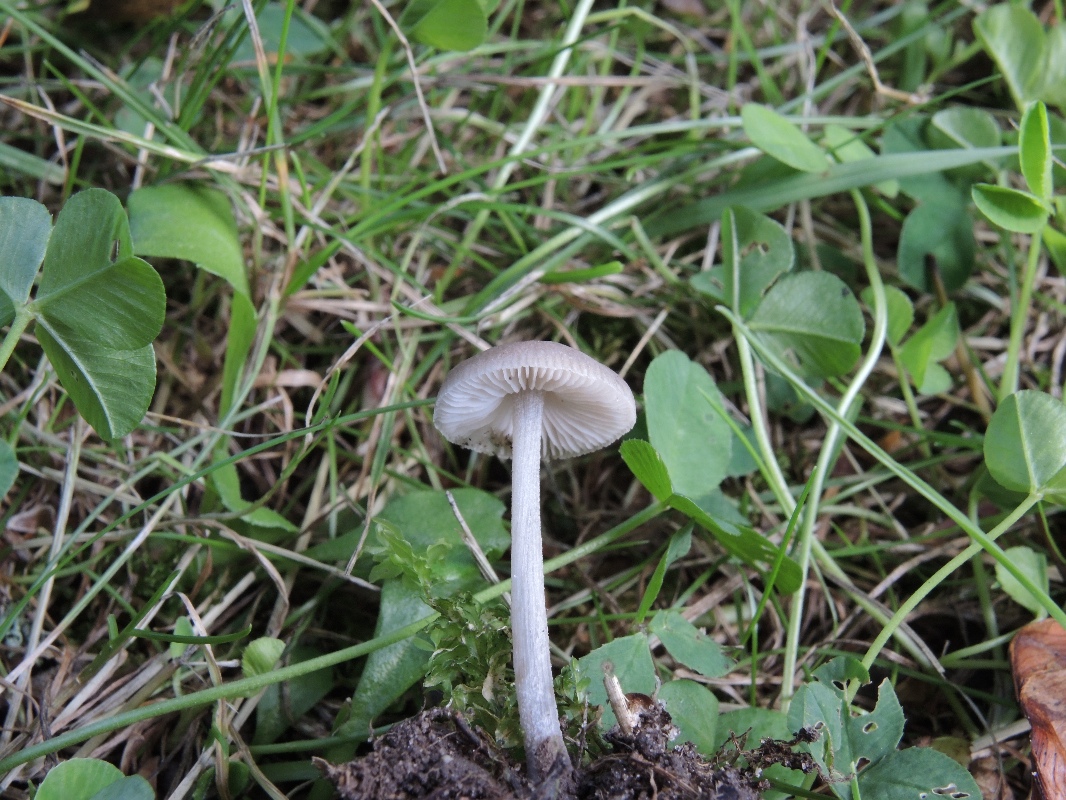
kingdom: Fungi
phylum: Basidiomycota
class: Agaricomycetes
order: Agaricales
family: Pluteaceae
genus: Pluteus
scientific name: Pluteus reisneri
